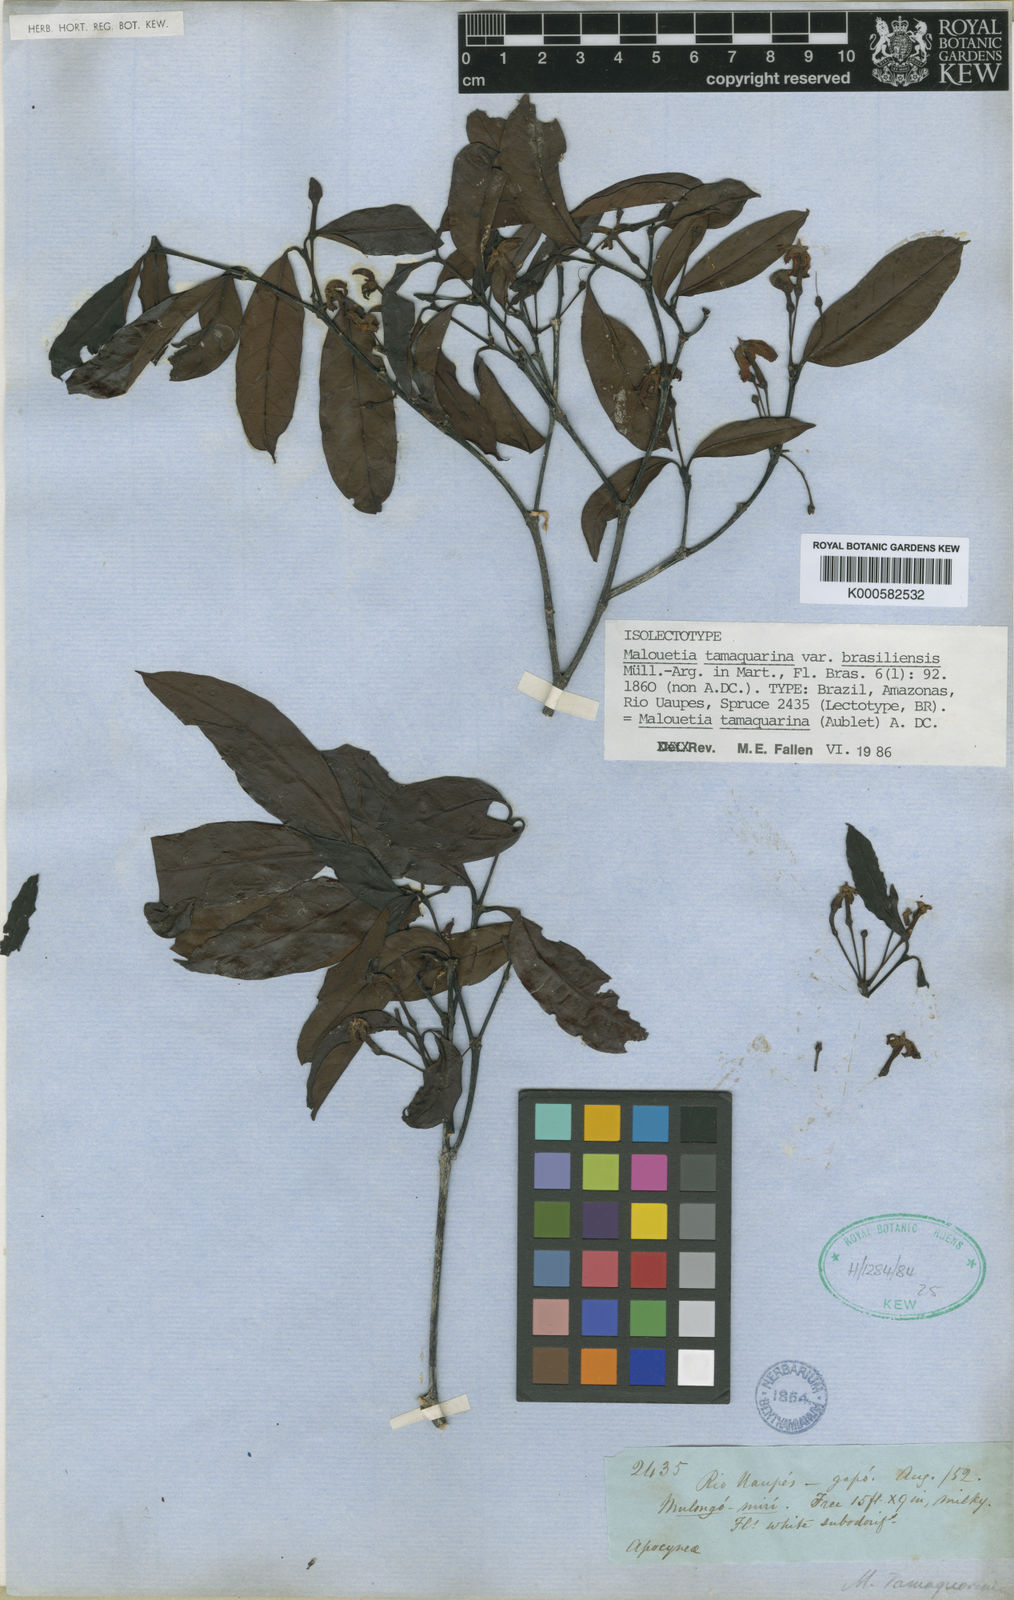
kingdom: Plantae
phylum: Tracheophyta
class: Magnoliopsida
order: Gentianales
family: Apocynaceae
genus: Malouetia
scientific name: Malouetia tamaquarina
